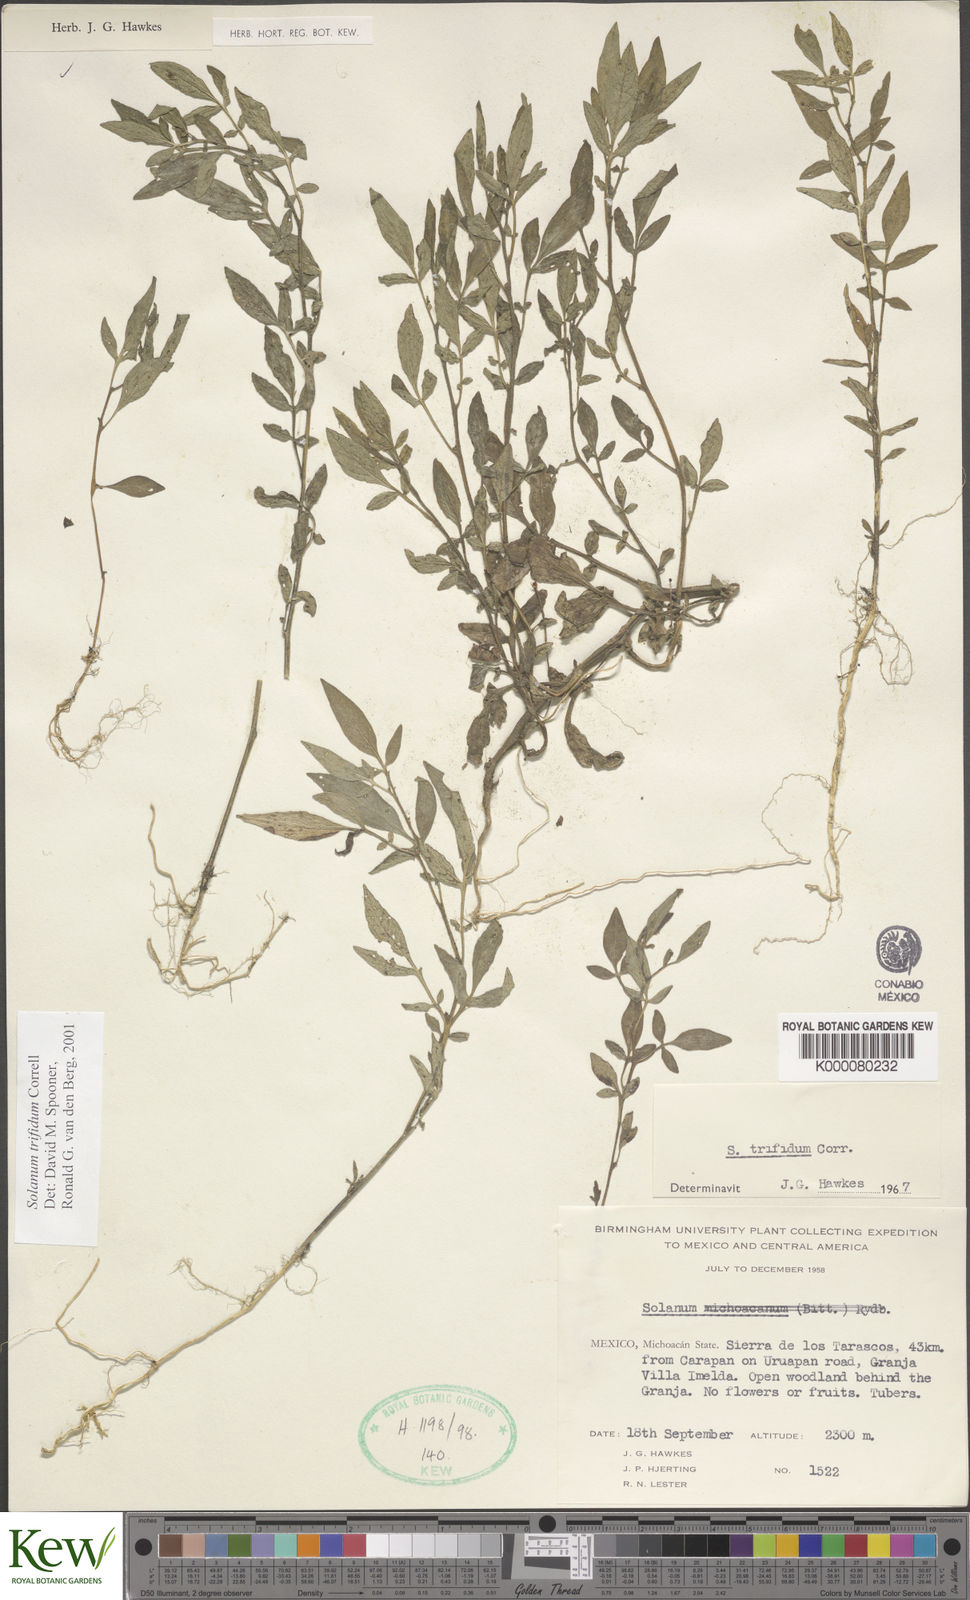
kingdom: Plantae
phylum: Tracheophyta
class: Magnoliopsida
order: Solanales
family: Solanaceae
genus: Solanum
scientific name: Solanum trifidum
